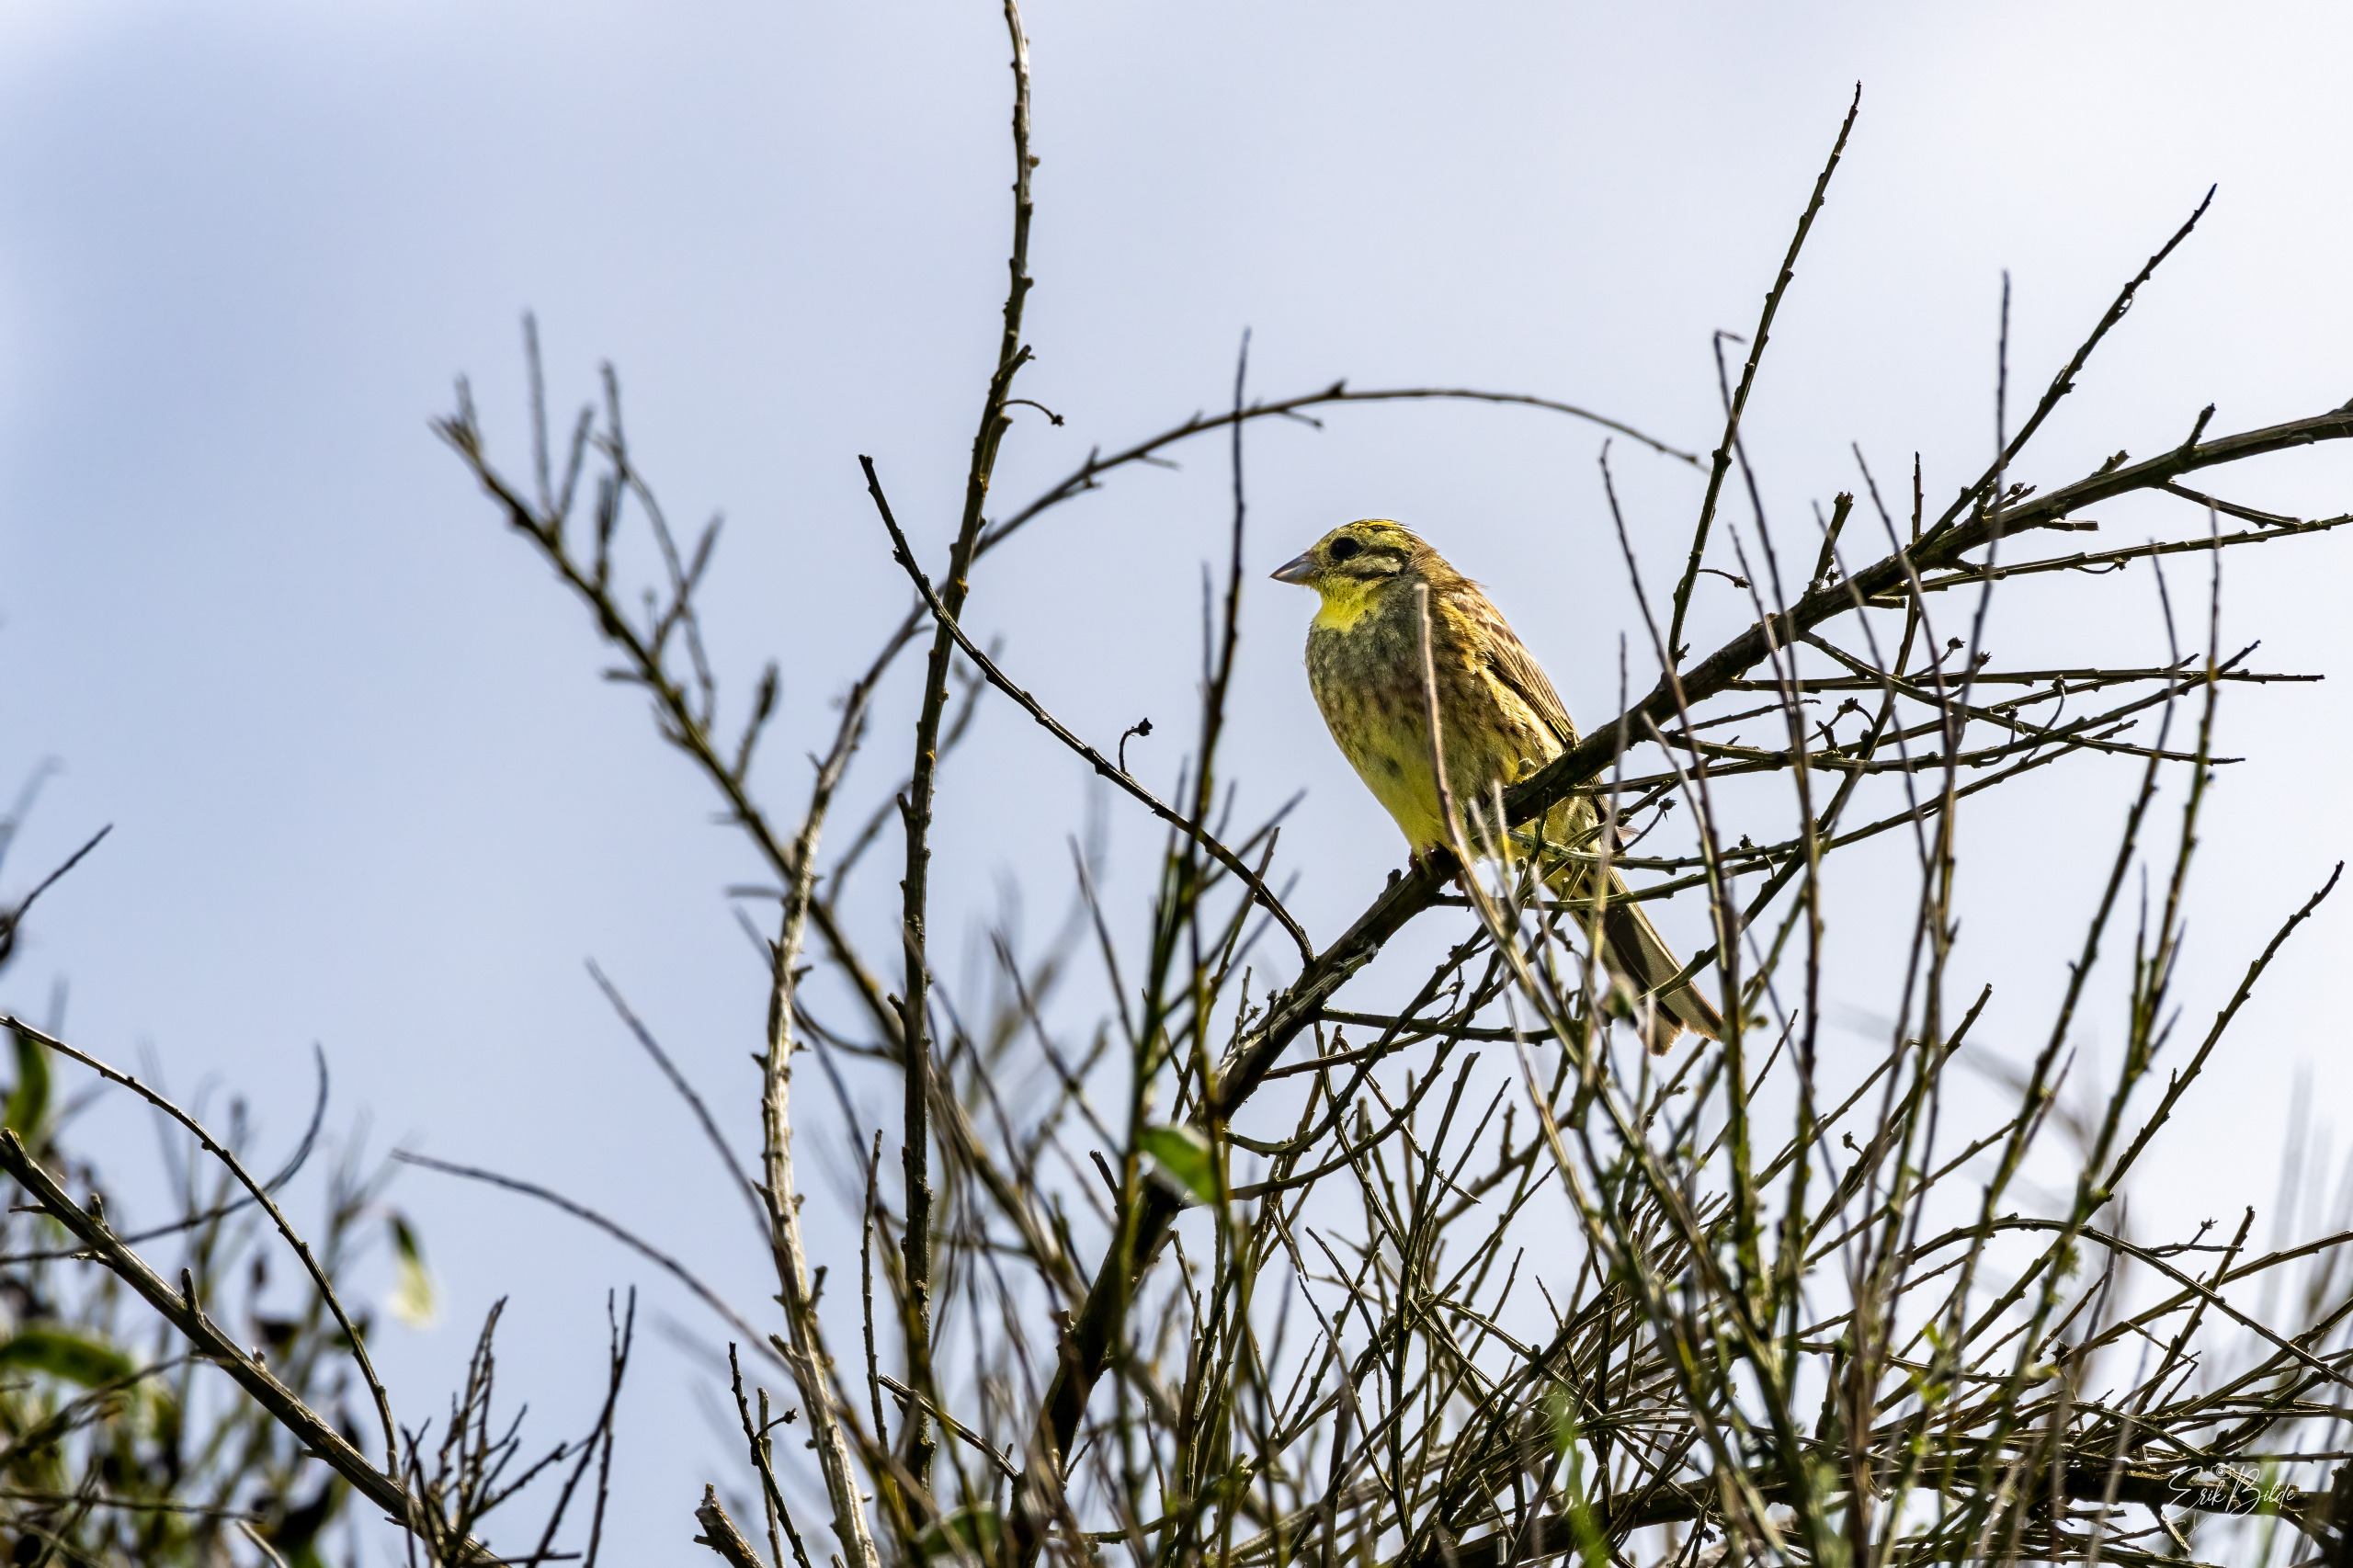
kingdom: Animalia
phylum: Chordata
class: Aves
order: Passeriformes
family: Emberizidae
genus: Emberiza
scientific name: Emberiza citrinella
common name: Gulspurv
